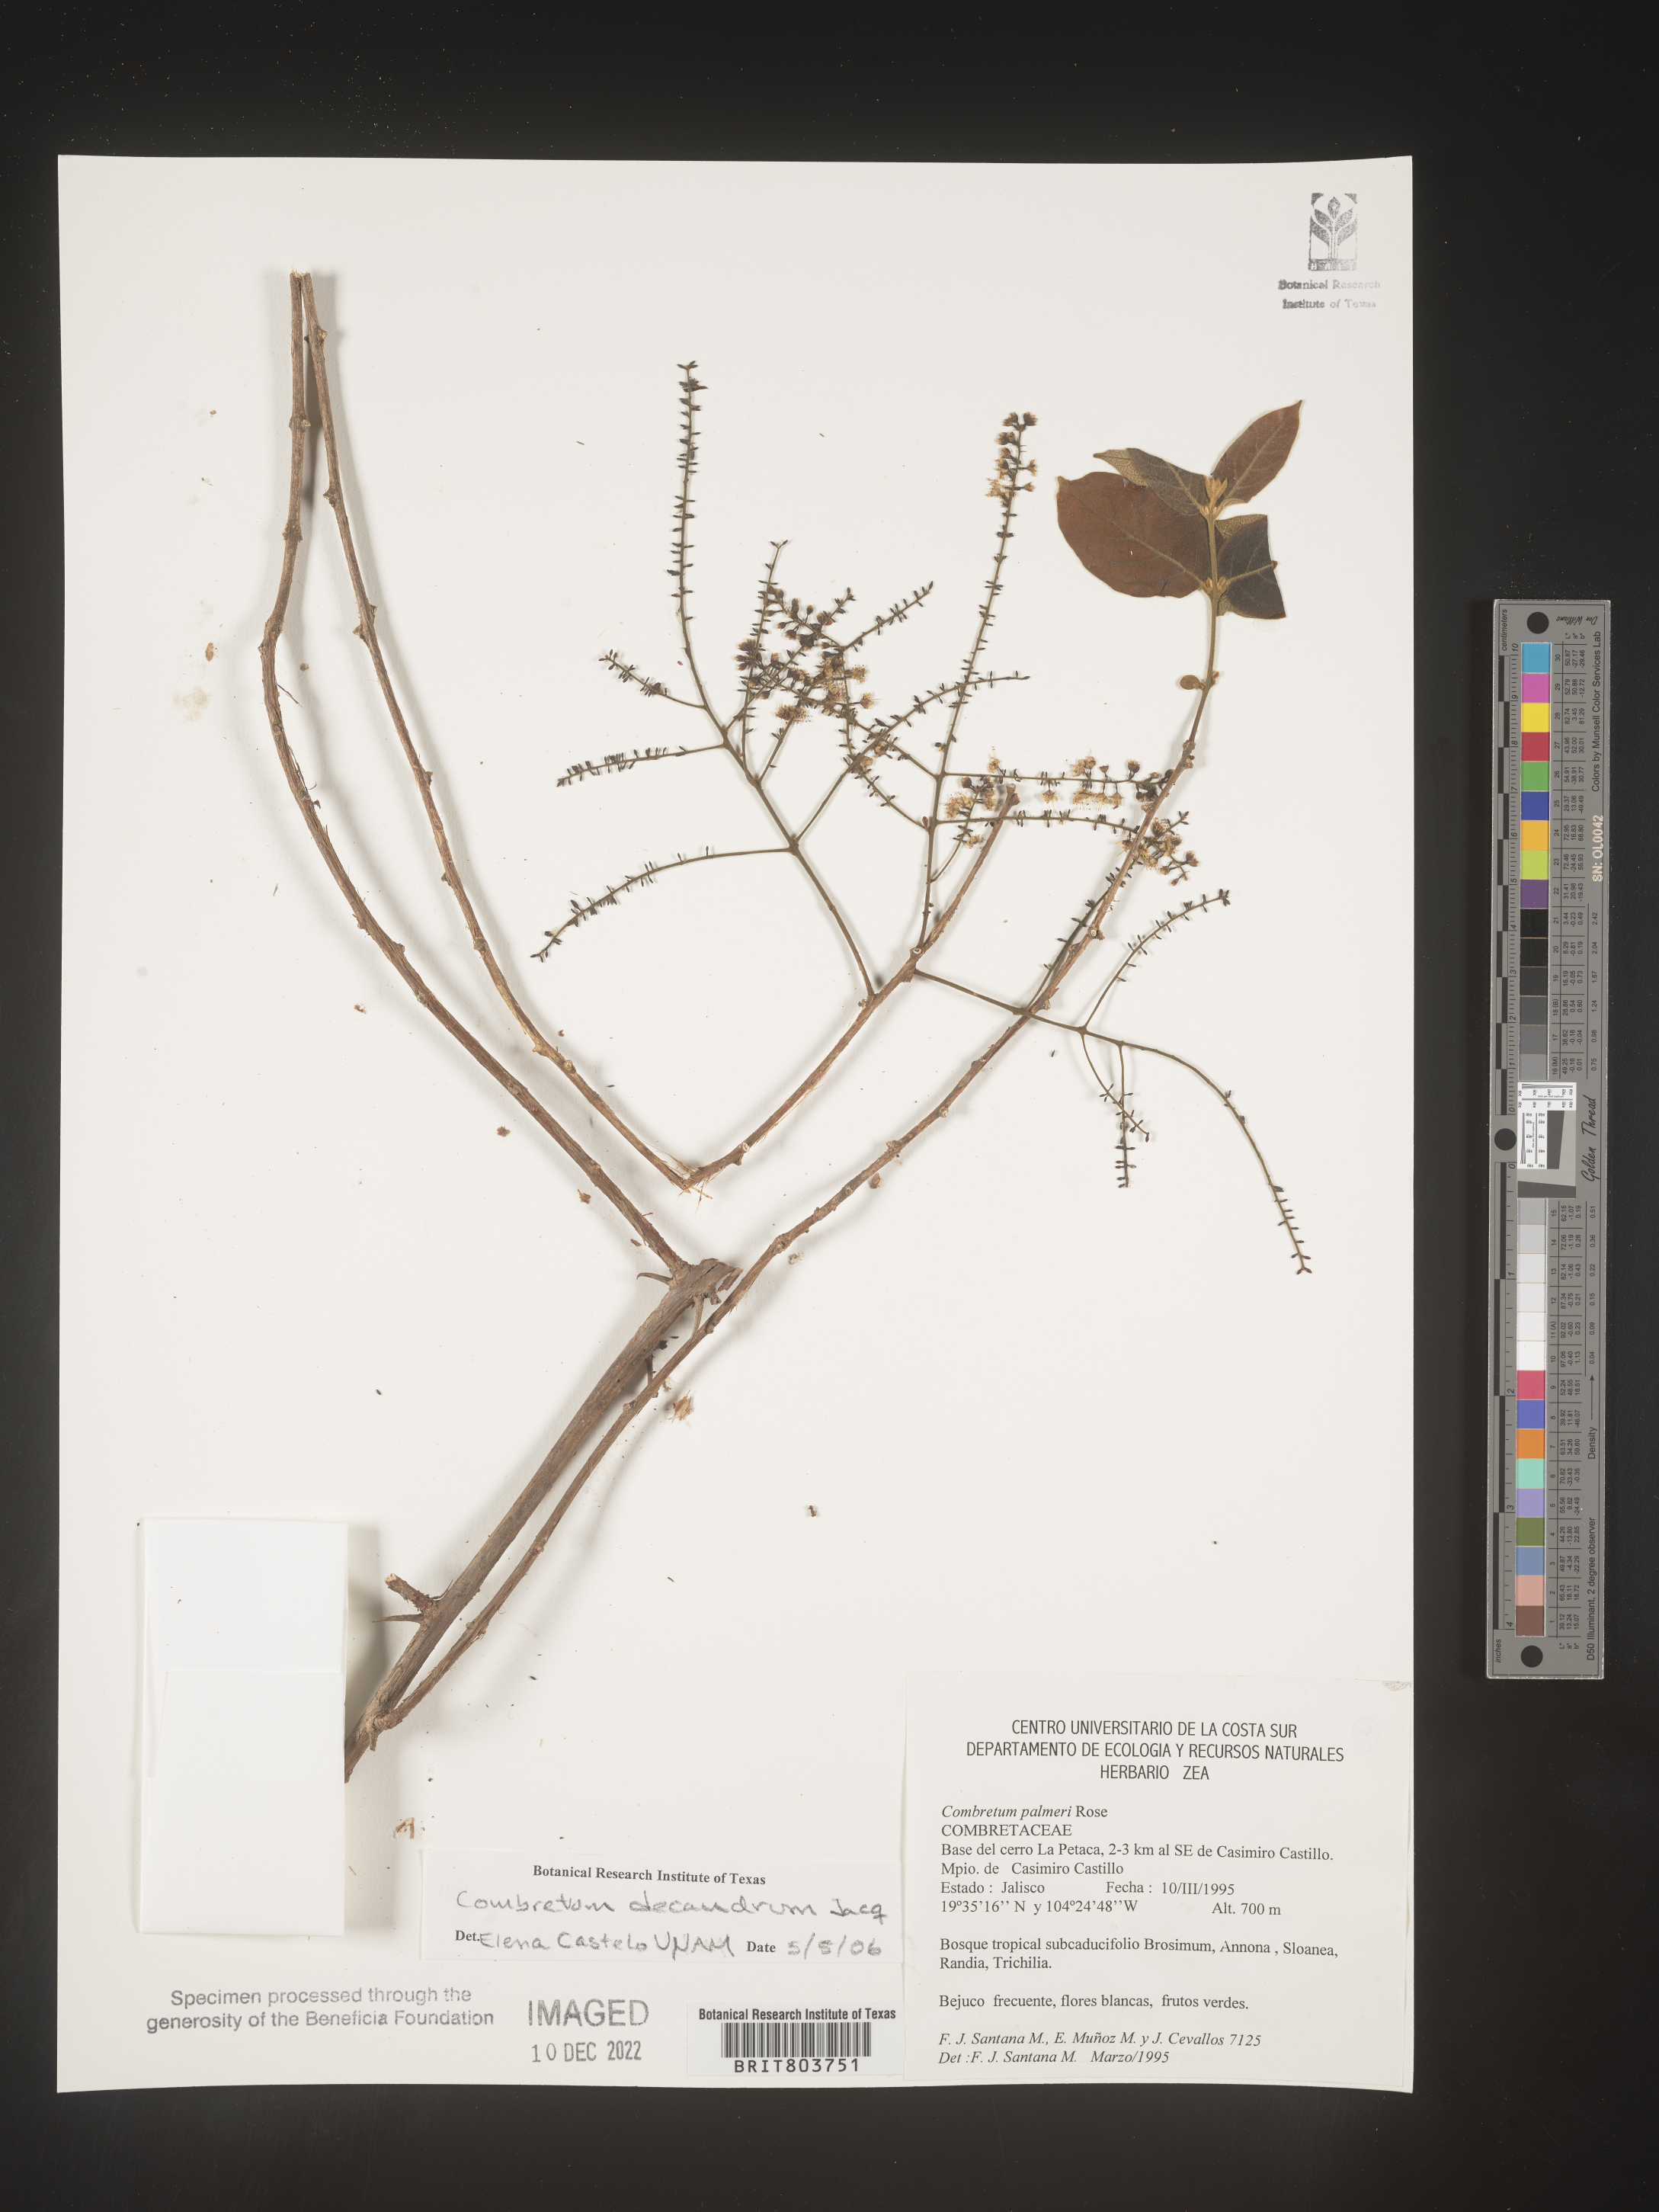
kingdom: Plantae
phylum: Tracheophyta
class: Magnoliopsida
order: Myrtales
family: Combretaceae
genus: Combretum
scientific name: Combretum
